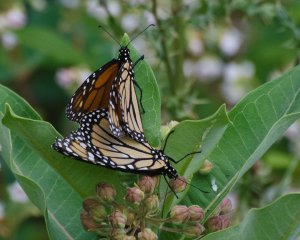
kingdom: Animalia
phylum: Arthropoda
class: Insecta
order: Lepidoptera
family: Nymphalidae
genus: Danaus
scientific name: Danaus plexippus
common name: Monarch
